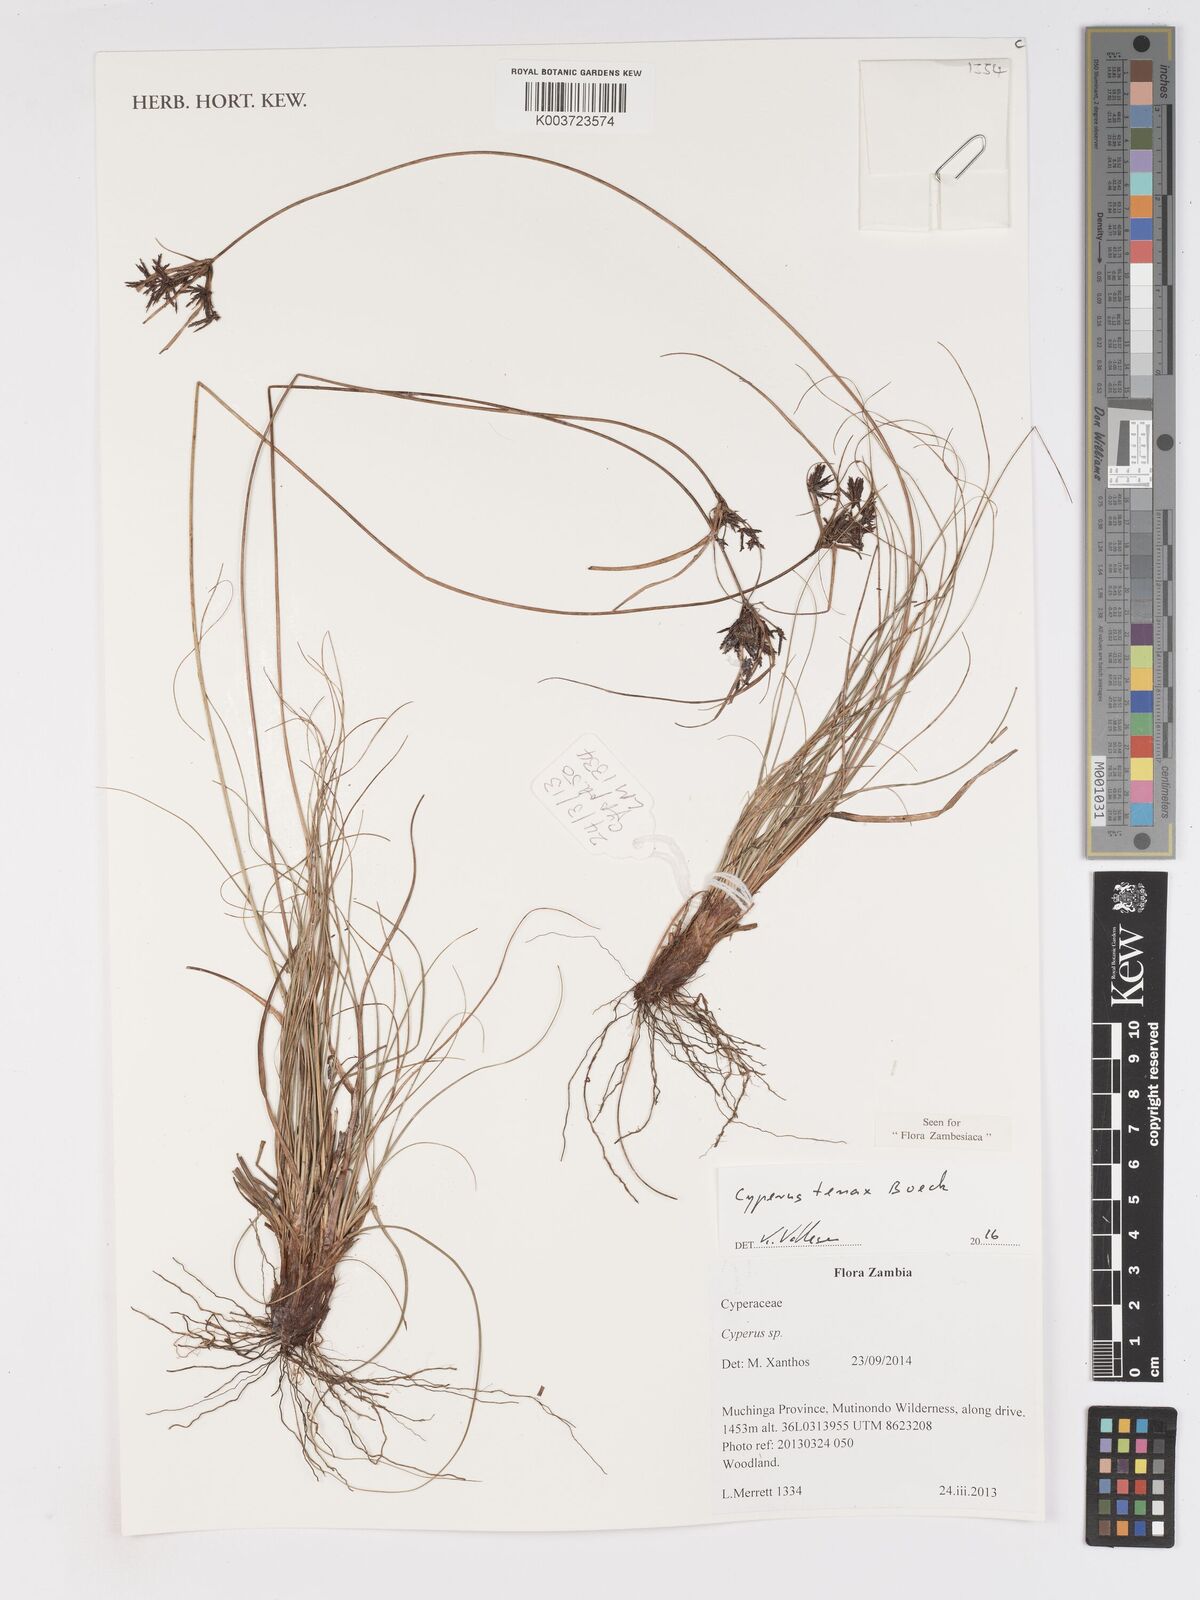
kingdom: Plantae
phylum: Tracheophyta
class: Liliopsida
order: Poales
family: Cyperaceae
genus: Cyperus
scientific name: Cyperus tenax
